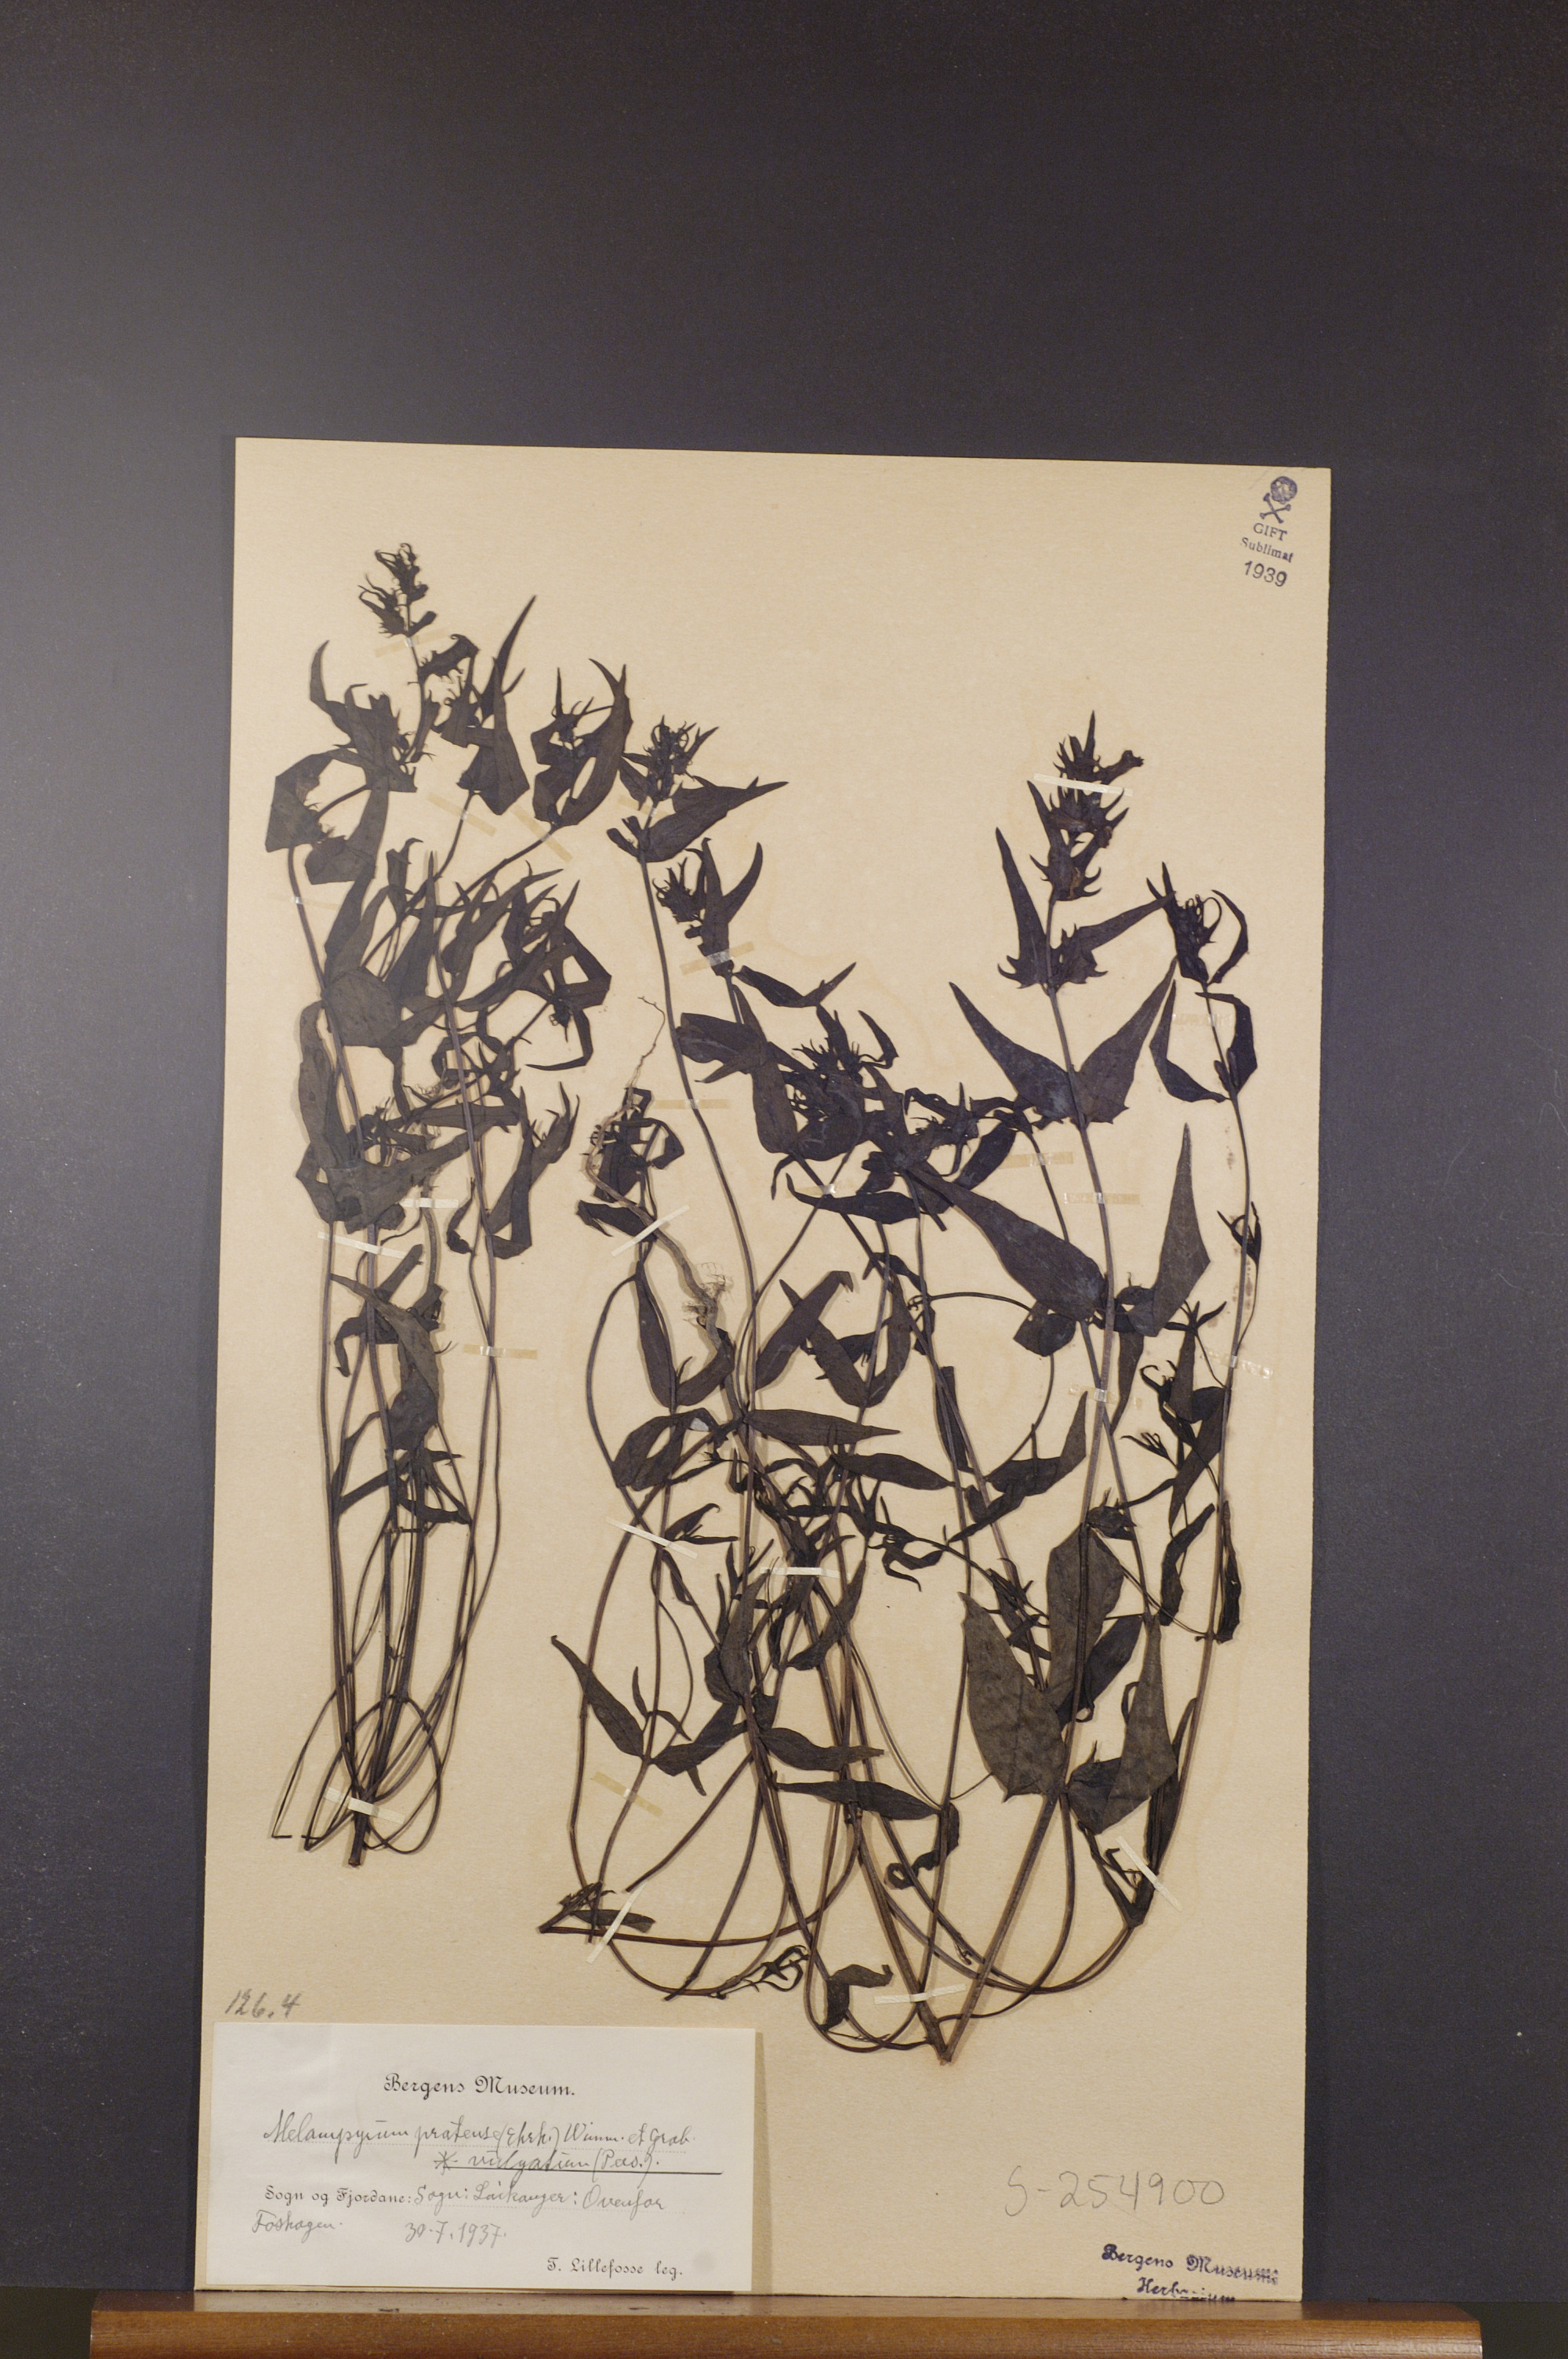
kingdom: Plantae
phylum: Tracheophyta
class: Magnoliopsida
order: Lamiales
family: Orobanchaceae
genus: Melampyrum
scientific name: Melampyrum pratense
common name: Common cow-wheat
